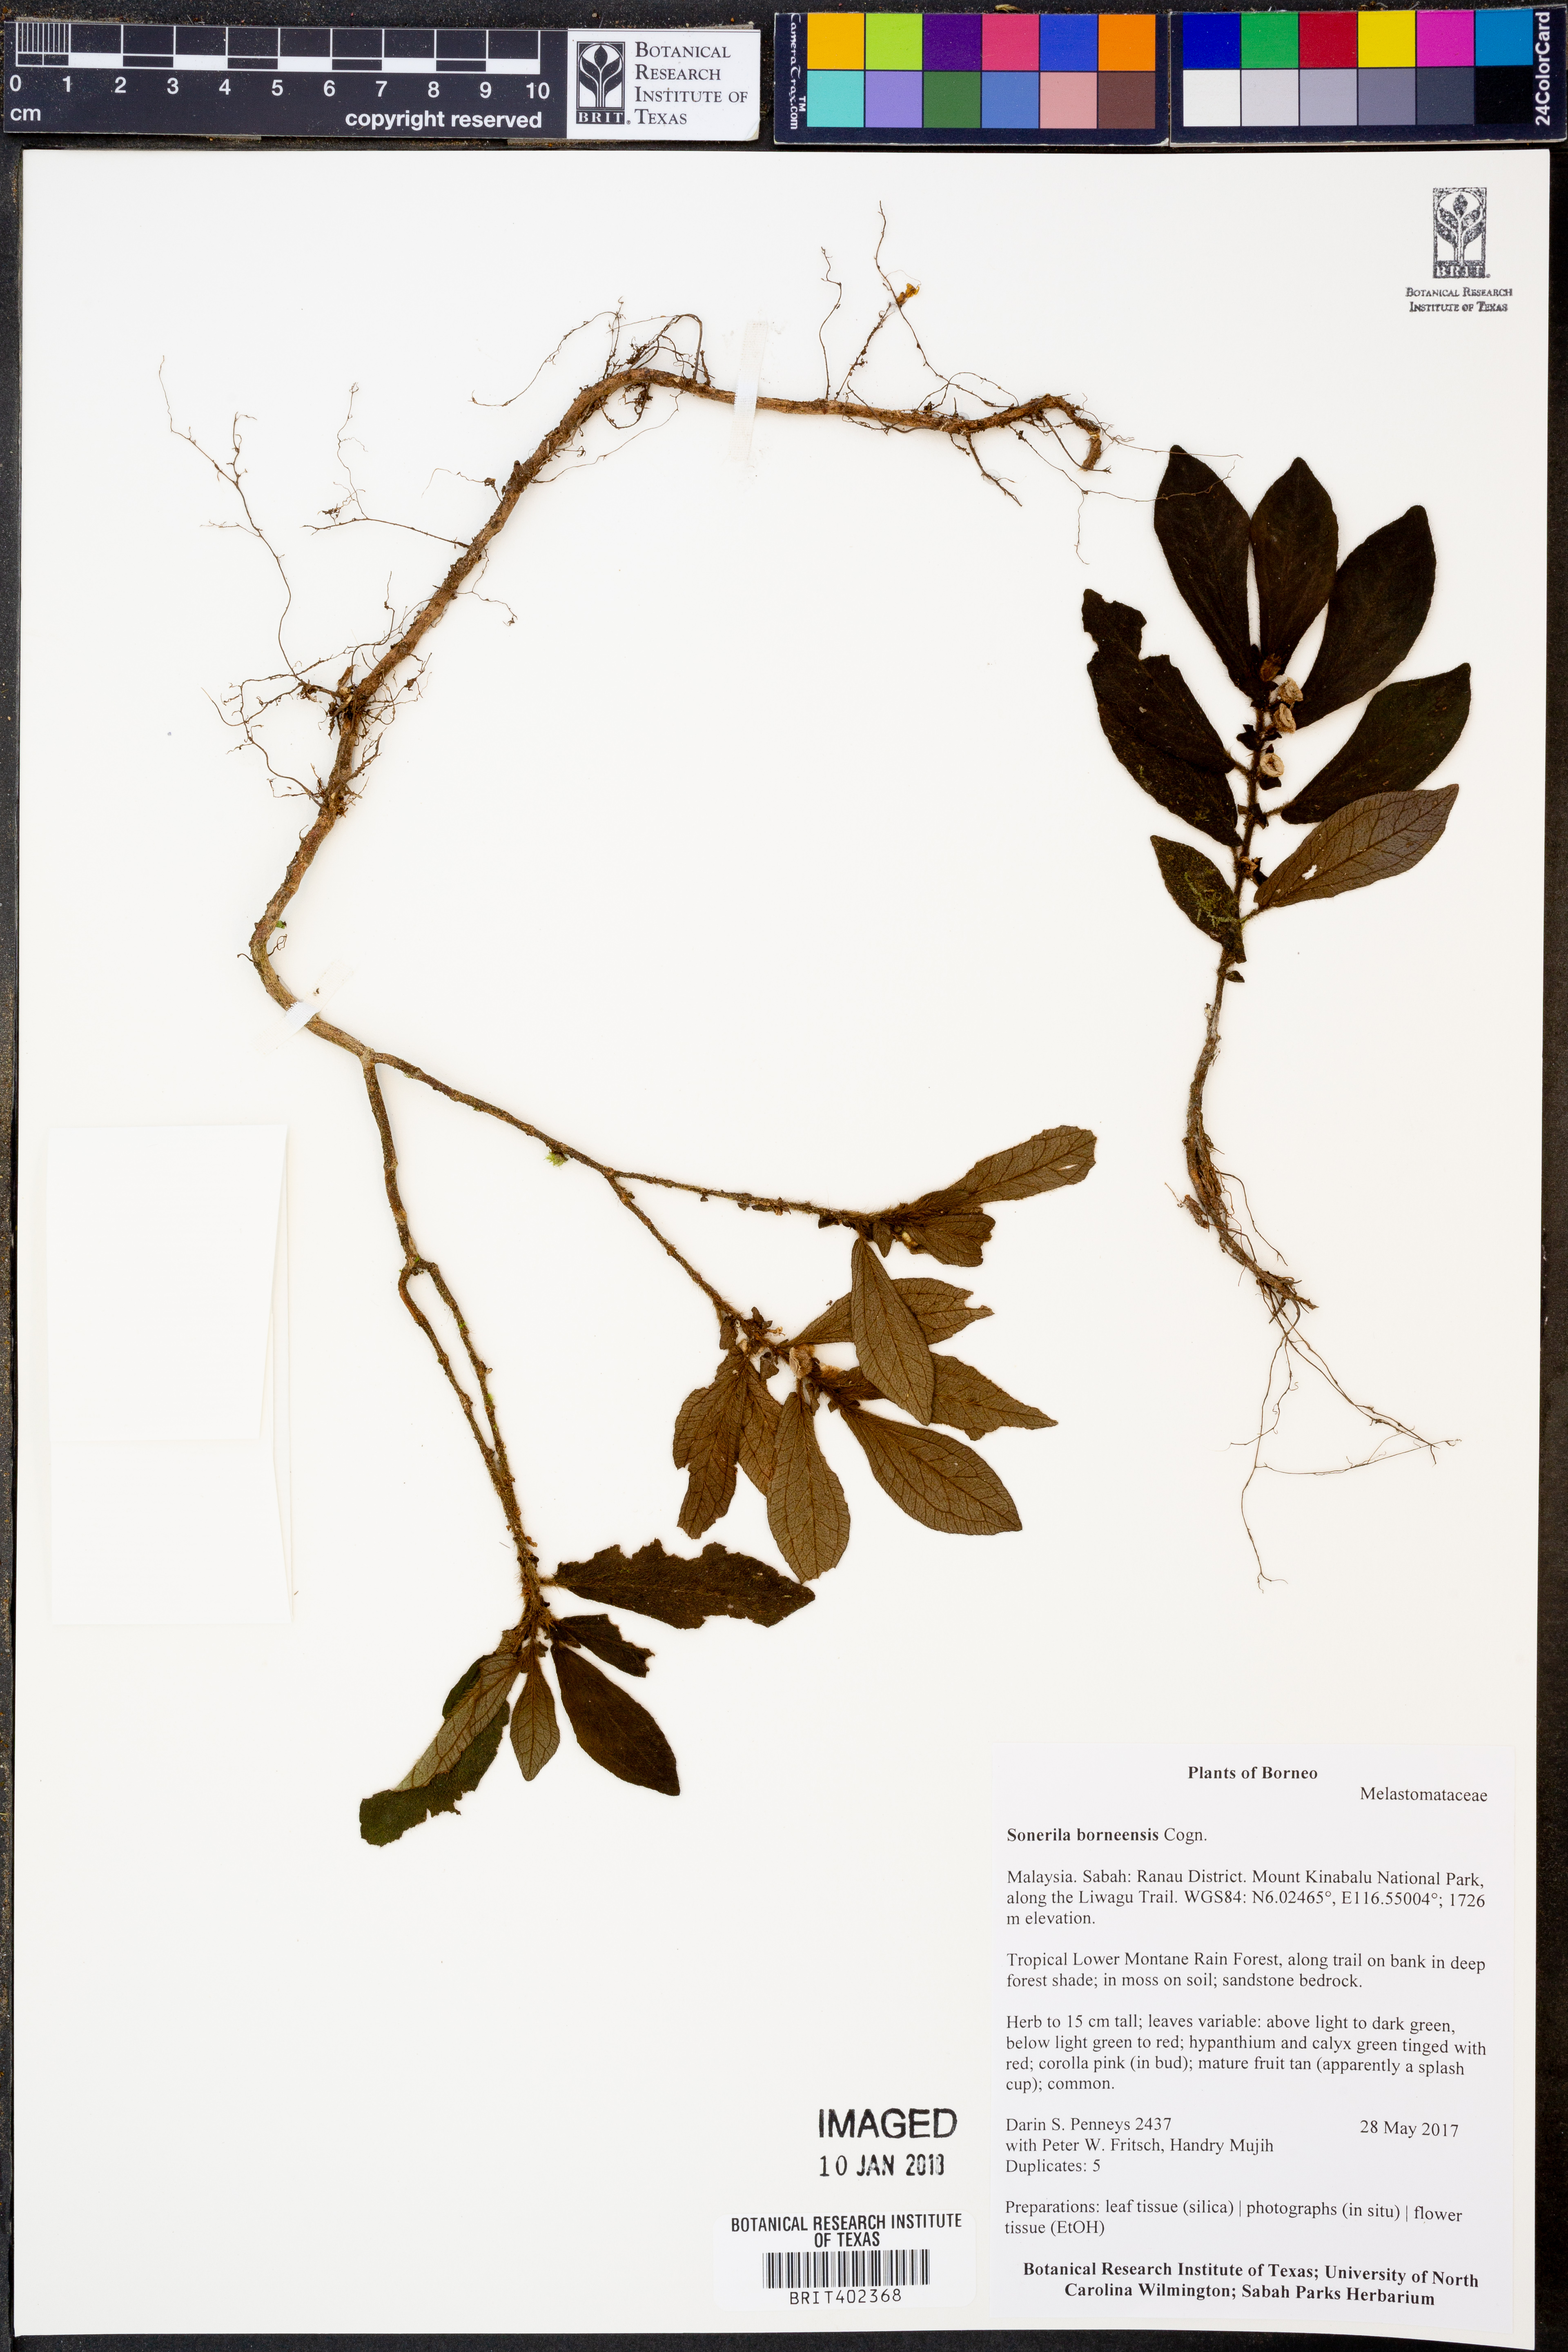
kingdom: Plantae
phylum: Tracheophyta
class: Magnoliopsida
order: Myrtales
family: Melastomataceae
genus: Sonerila
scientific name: Sonerila borneensis
